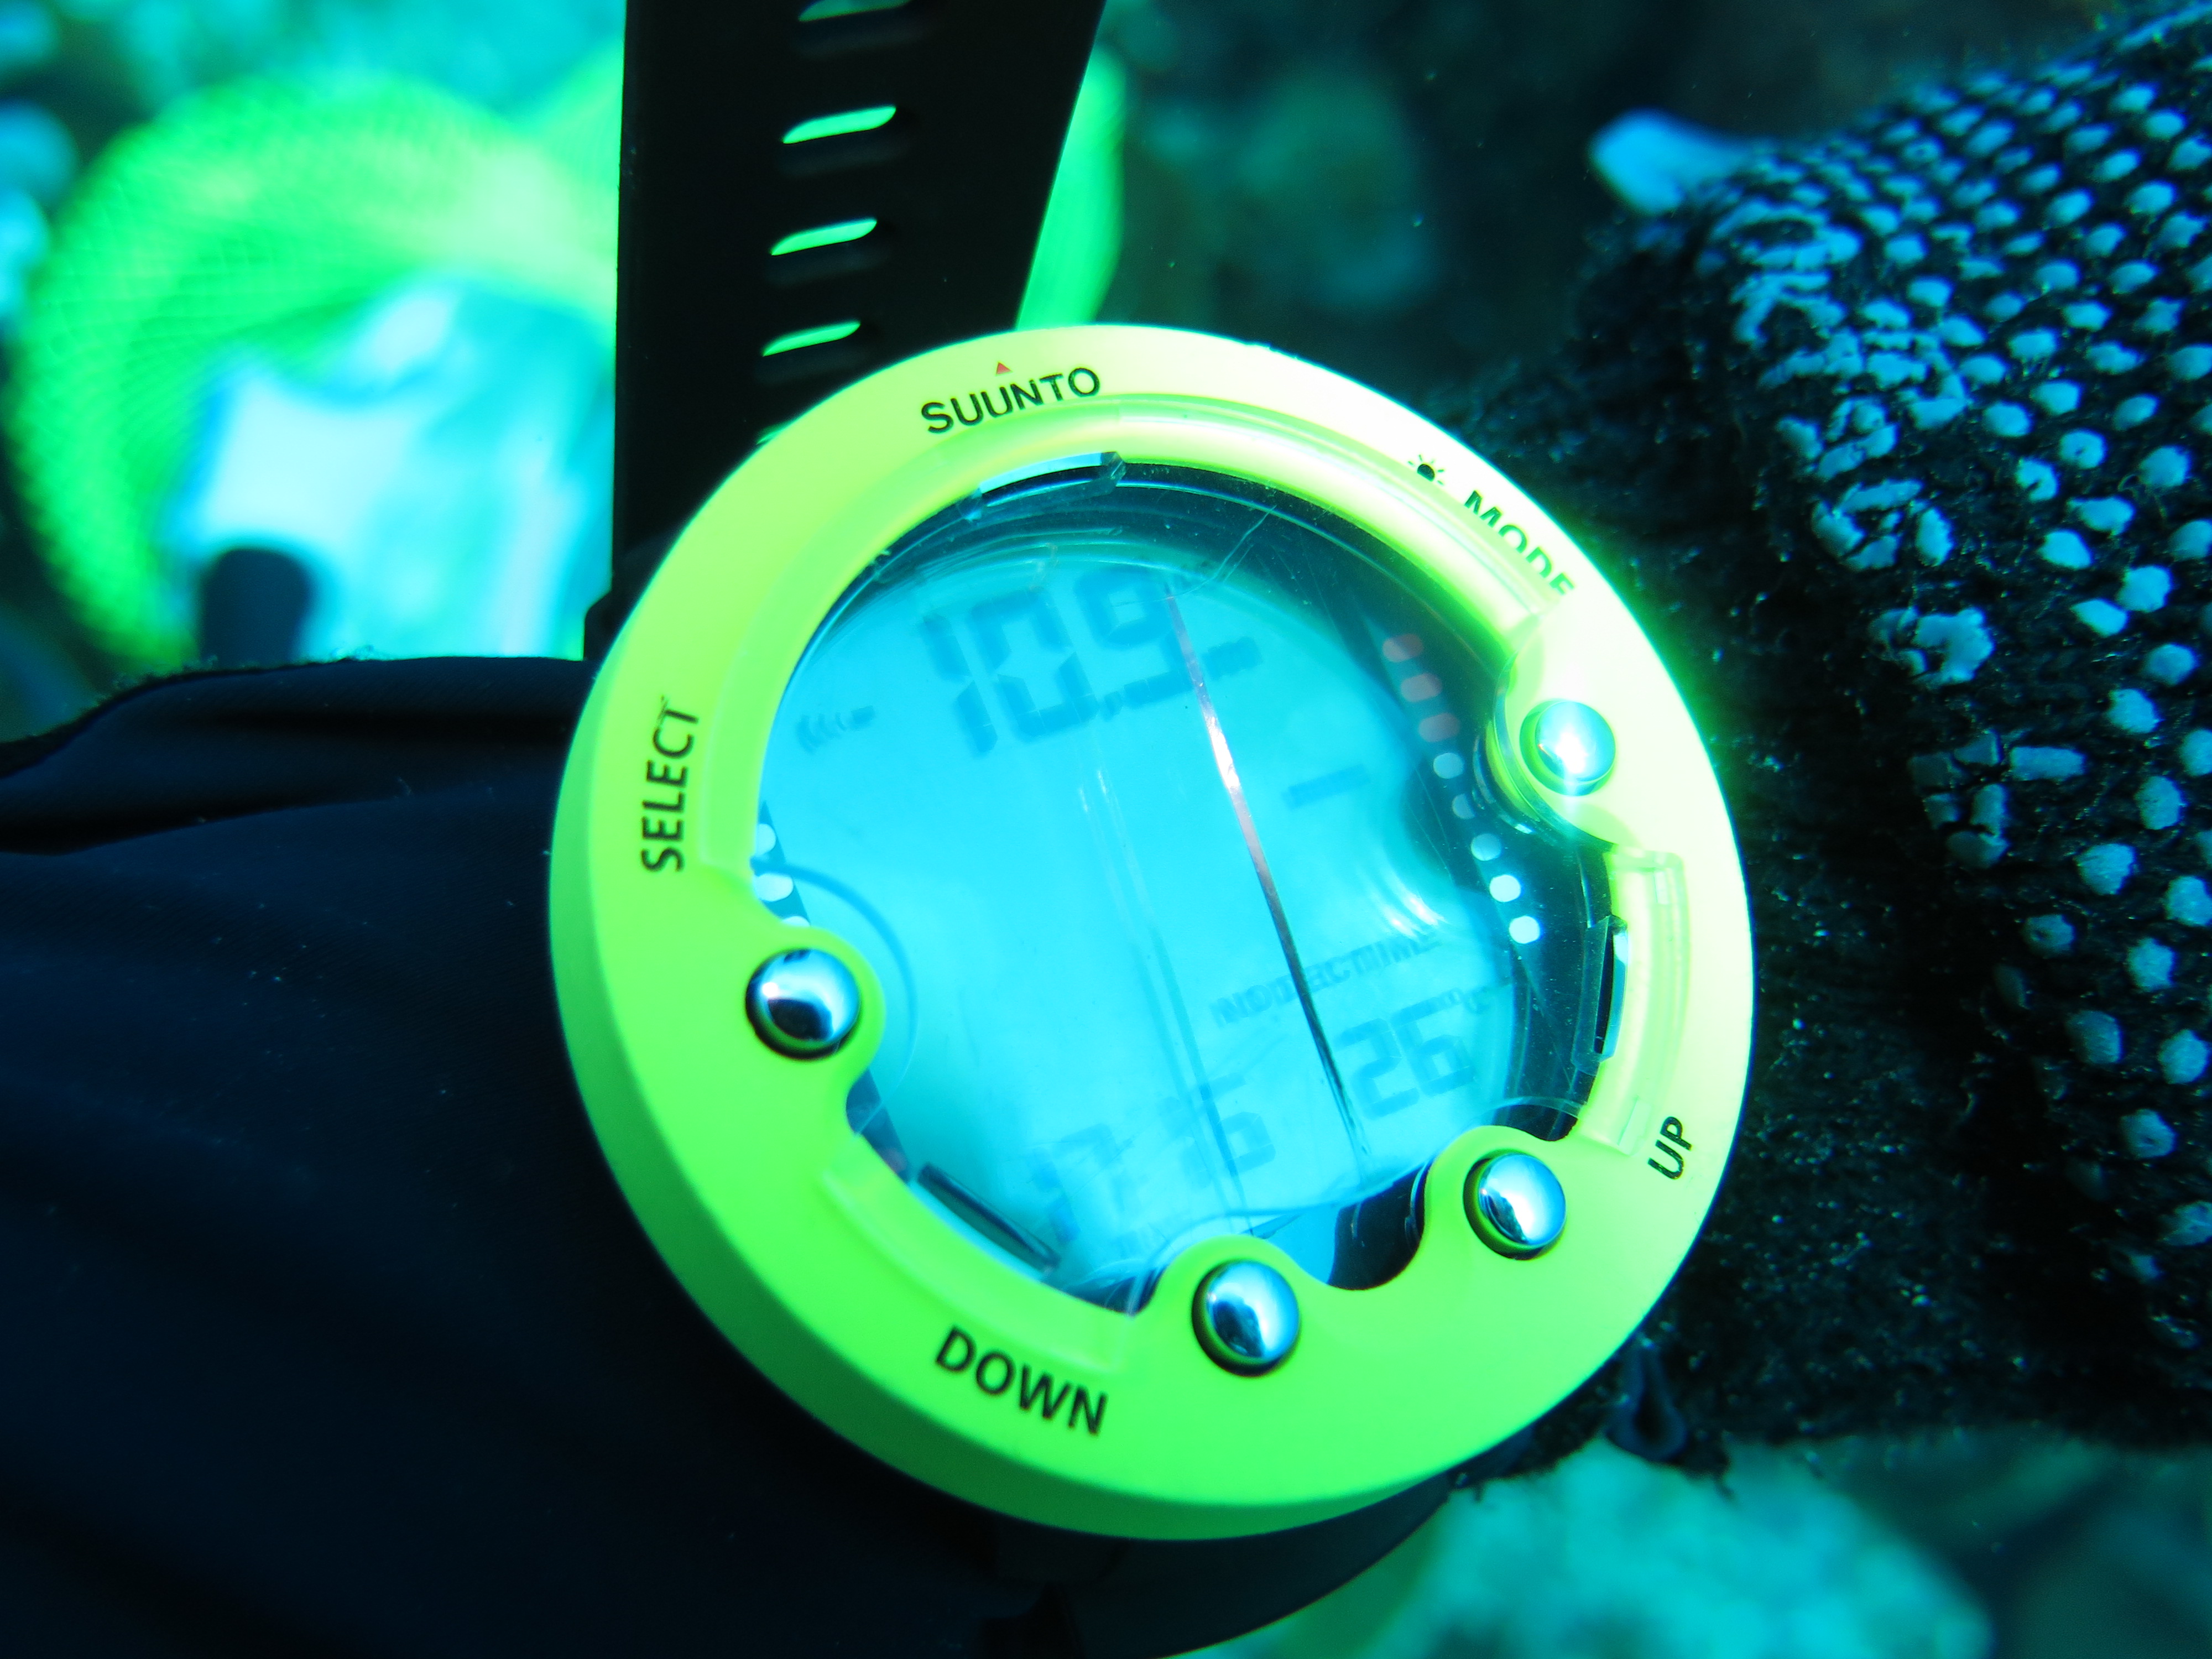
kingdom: Animalia
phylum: Porifera
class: Demospongiae
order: Haplosclerida
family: Petrosiidae
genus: Xestospongia
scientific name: Xestospongia muta
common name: Giant barrel sponge
